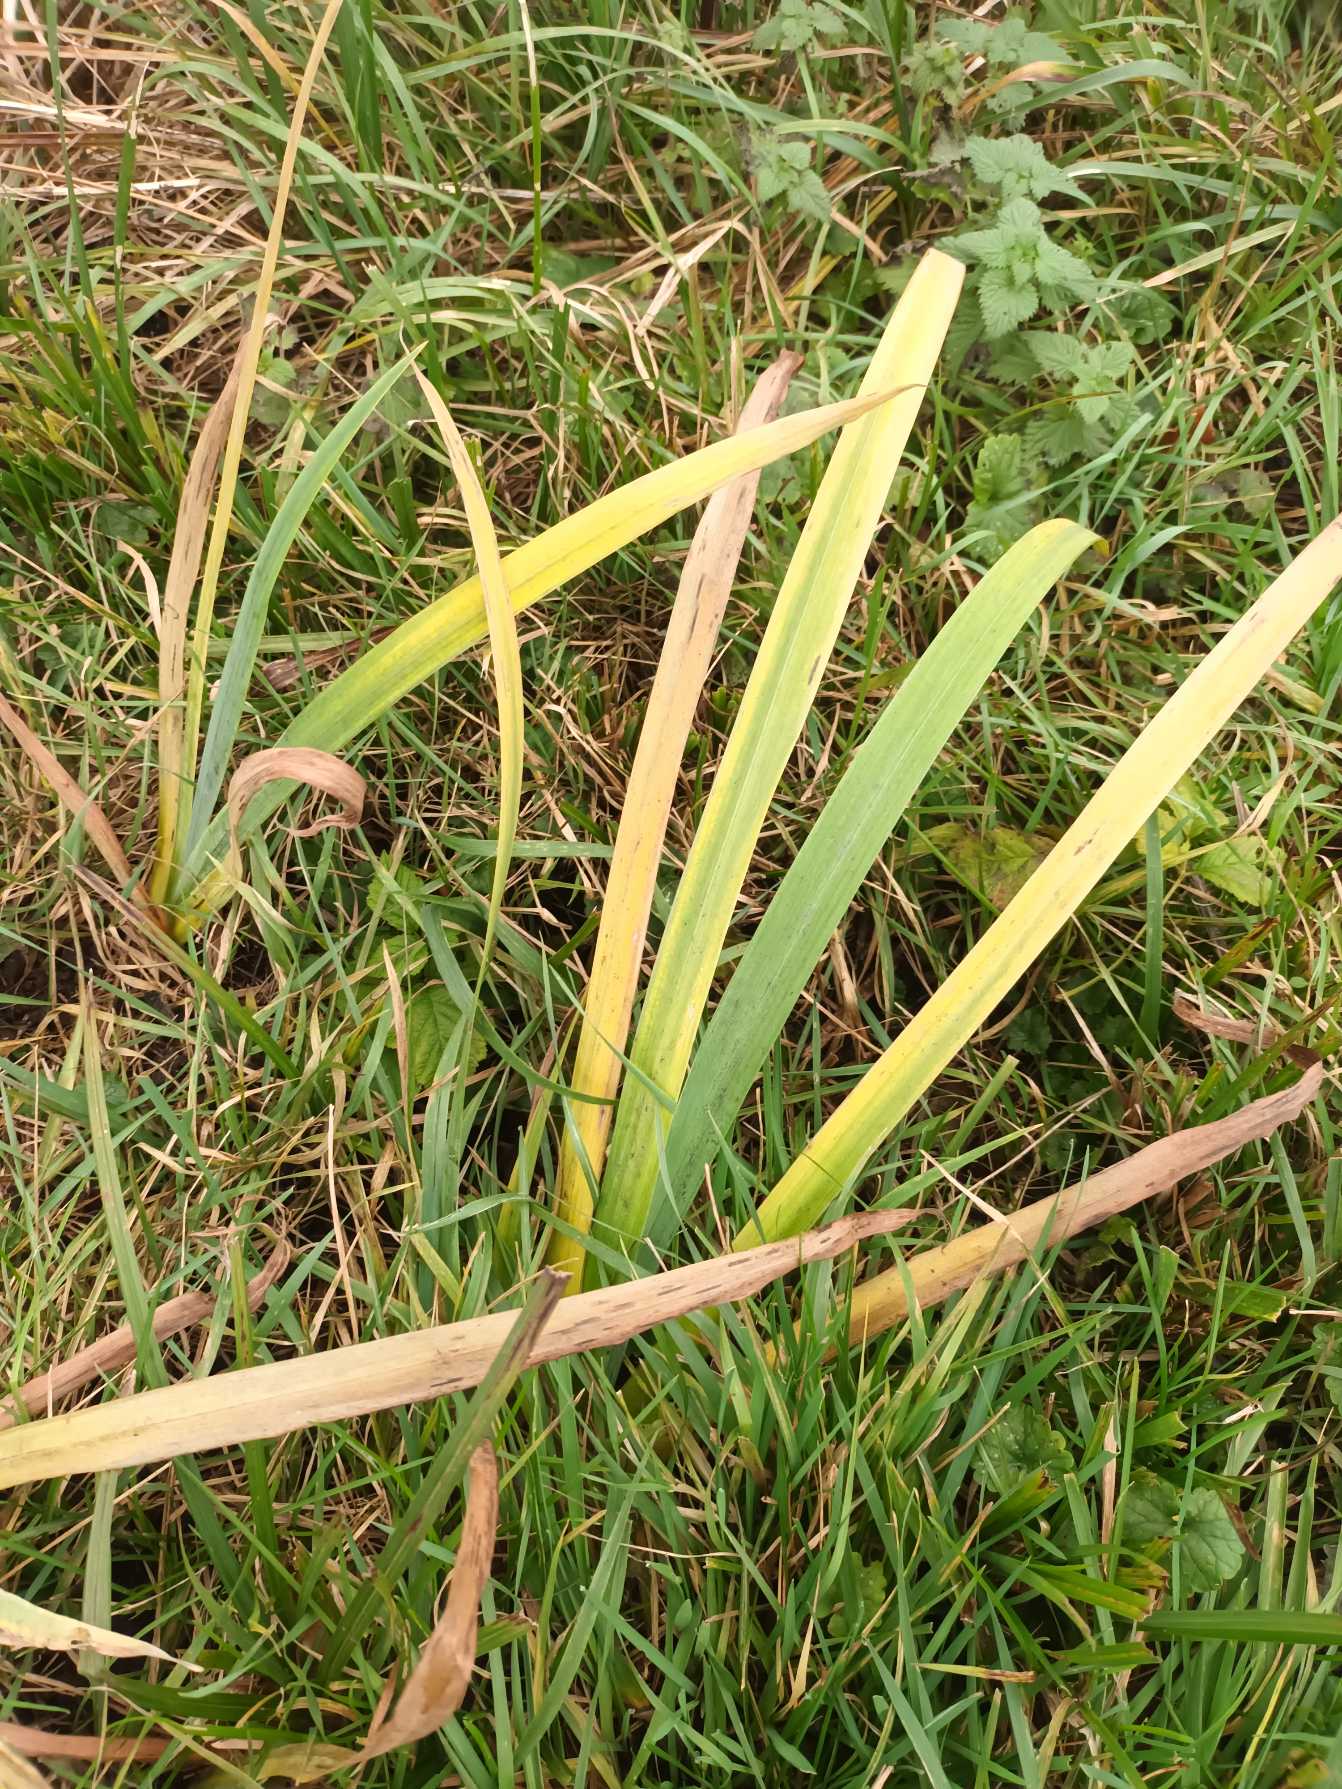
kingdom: Plantae
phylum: Tracheophyta
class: Liliopsida
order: Asparagales
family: Iridaceae
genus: Iris
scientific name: Iris pseudacorus
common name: Gul iris
